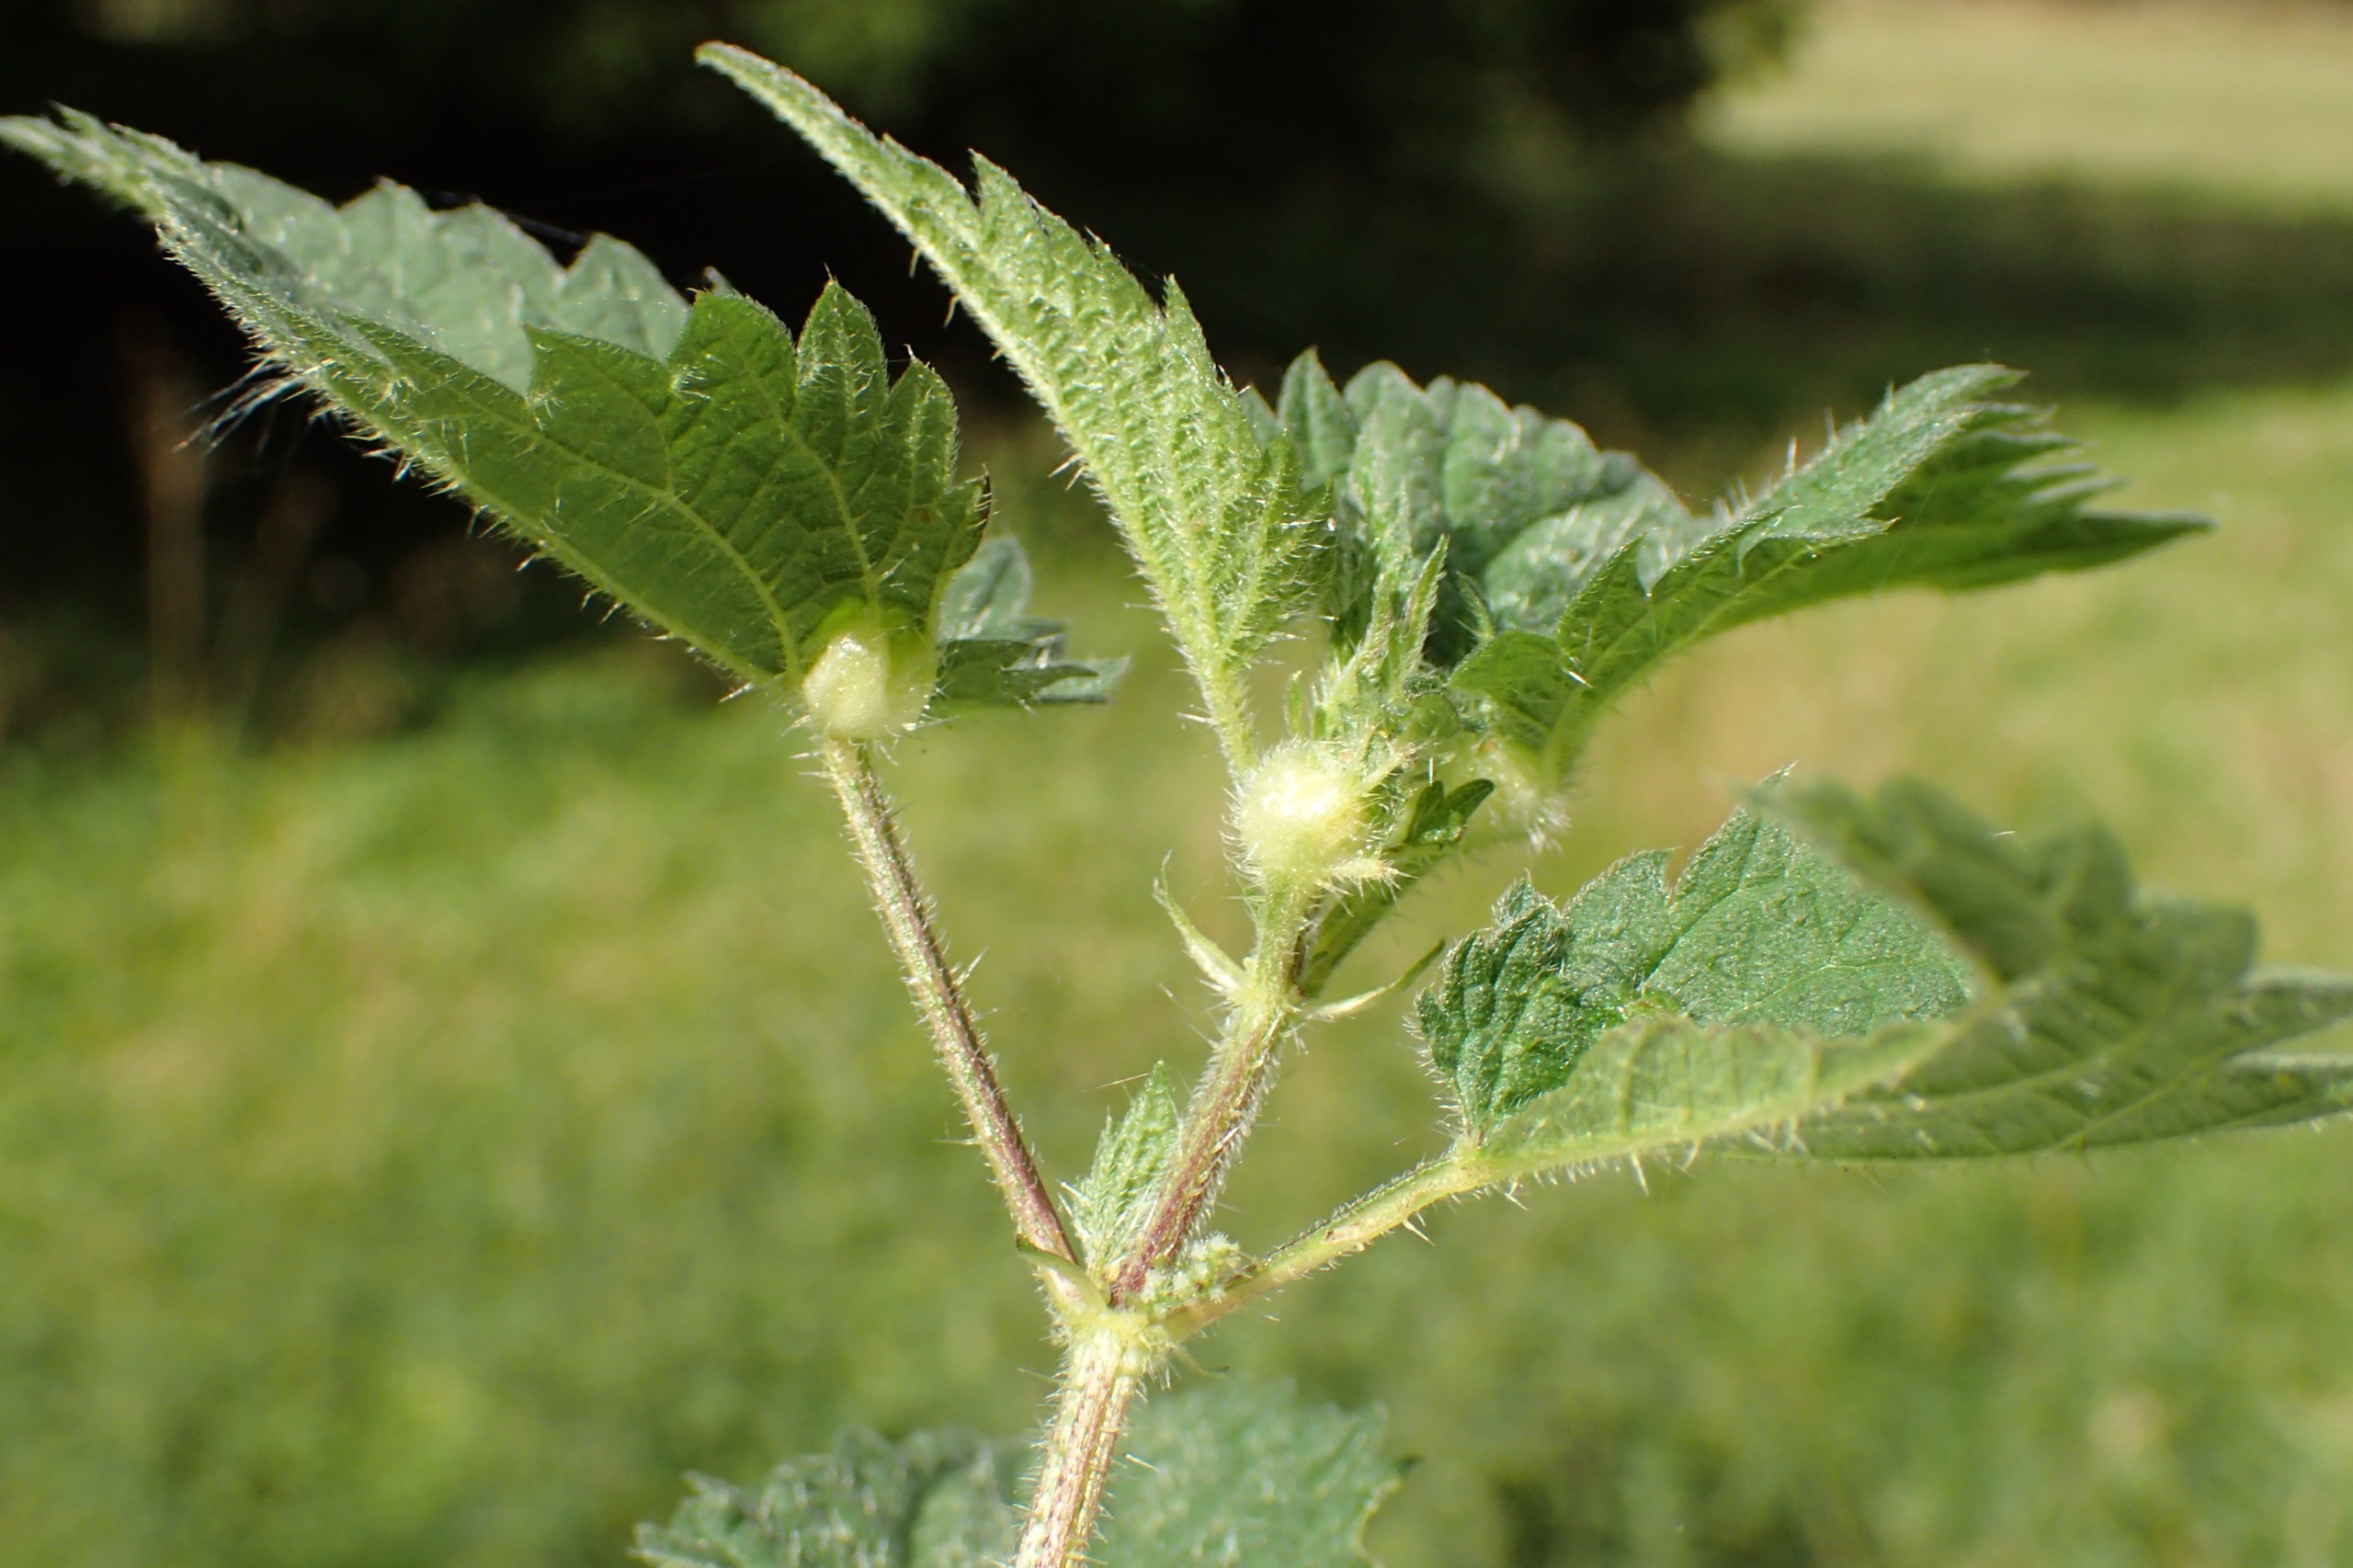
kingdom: Animalia
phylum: Arthropoda
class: Insecta
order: Diptera
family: Cecidomyiidae
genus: Dasineura
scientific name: Dasineura urticae
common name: Nældepunggalmyg
